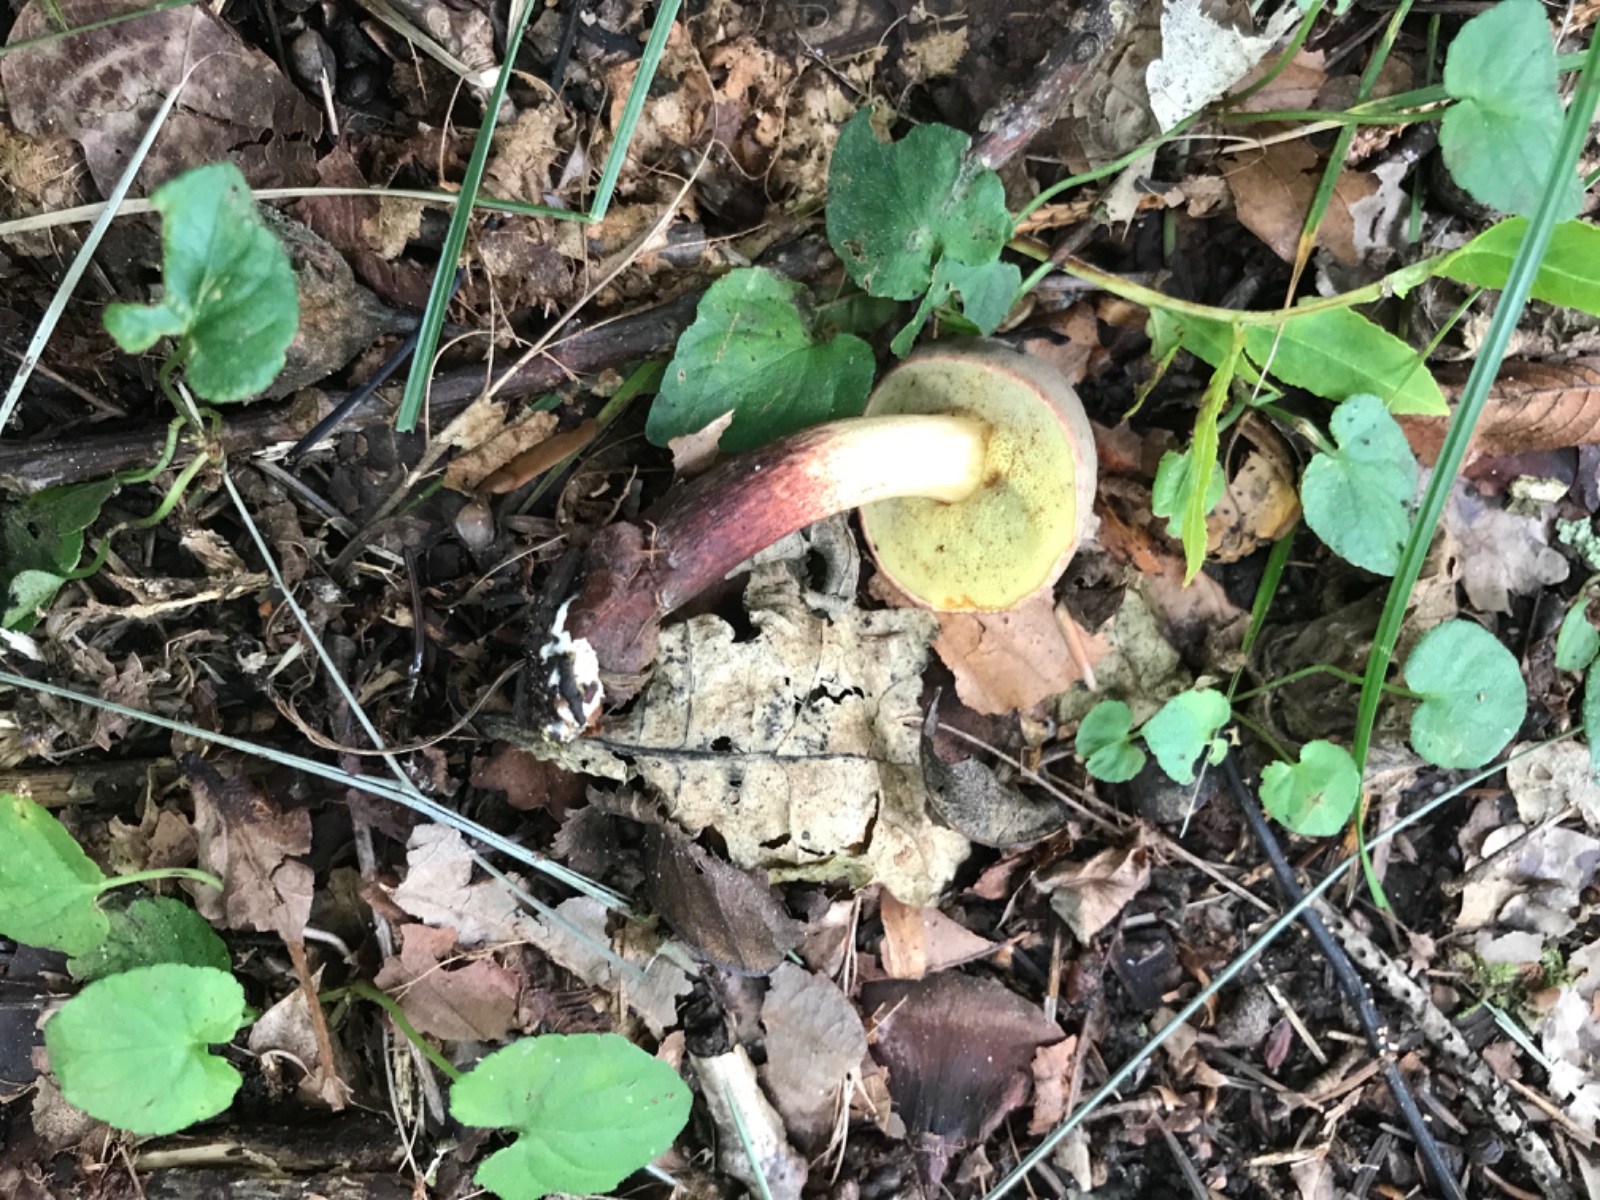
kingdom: Fungi
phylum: Basidiomycota
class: Agaricomycetes
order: Boletales
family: Boletaceae
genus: Xerocomellus
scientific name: Xerocomellus pruinatus
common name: dugget rørhat
